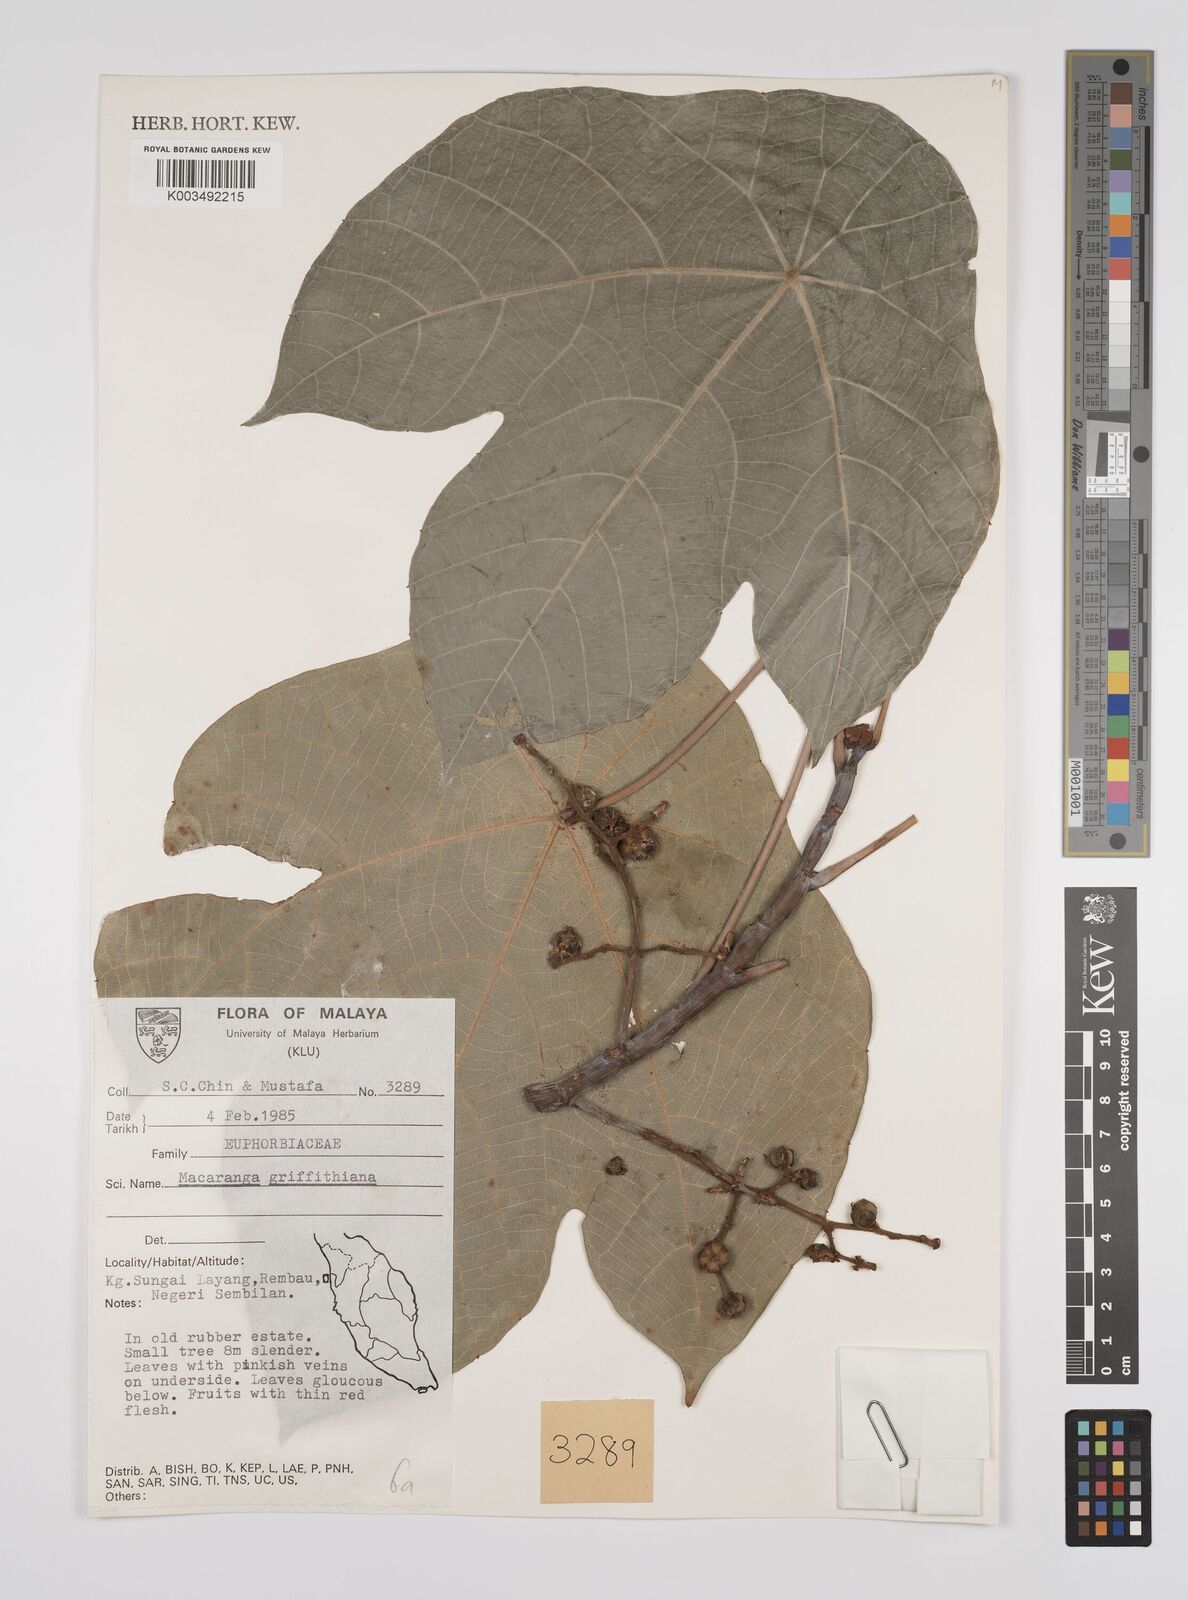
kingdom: Plantae
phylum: Tracheophyta
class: Magnoliopsida
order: Malpighiales
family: Euphorbiaceae
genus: Macaranga
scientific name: Macaranga griffithiana
